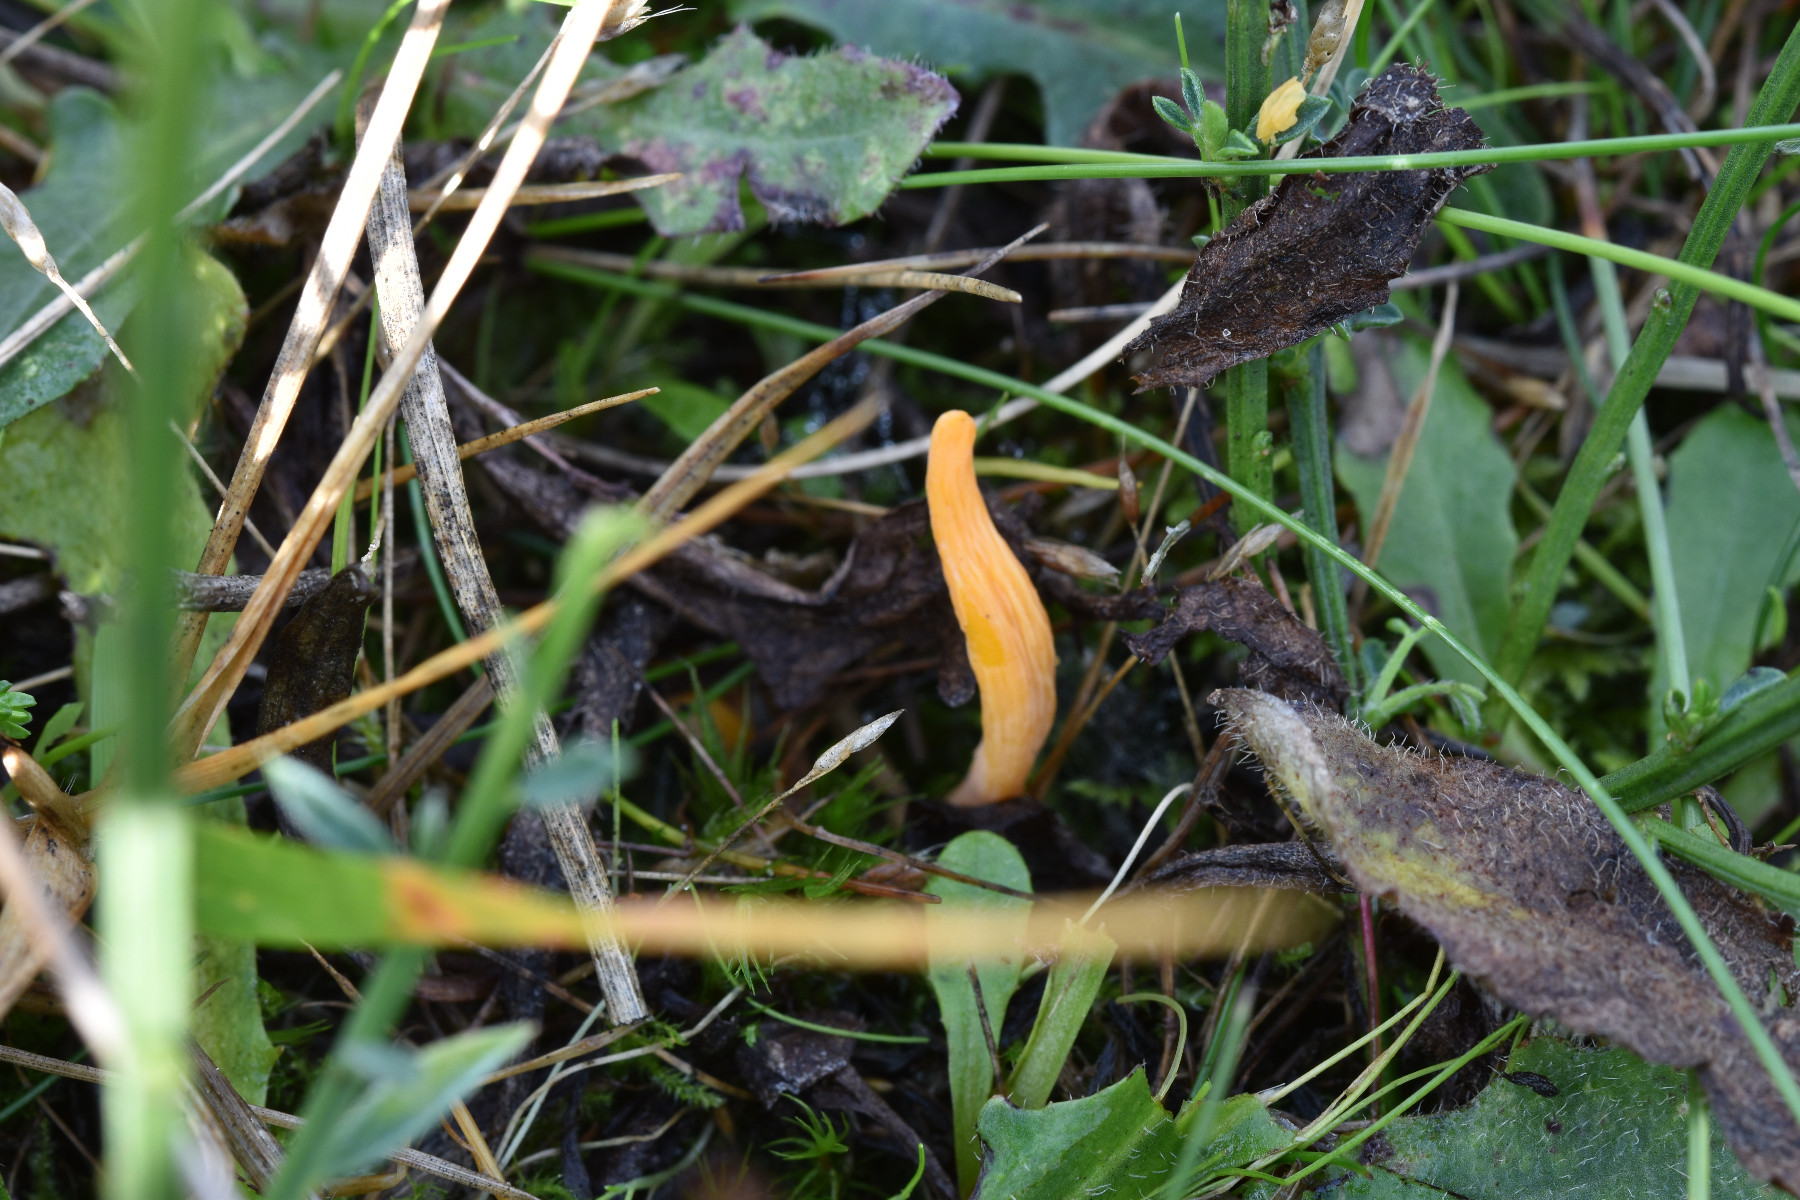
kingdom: Fungi
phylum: Basidiomycota
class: Agaricomycetes
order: Agaricales
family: Clavariaceae
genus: Clavulinopsis
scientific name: Clavulinopsis luteoalba
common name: abrikos-køllesvamp
